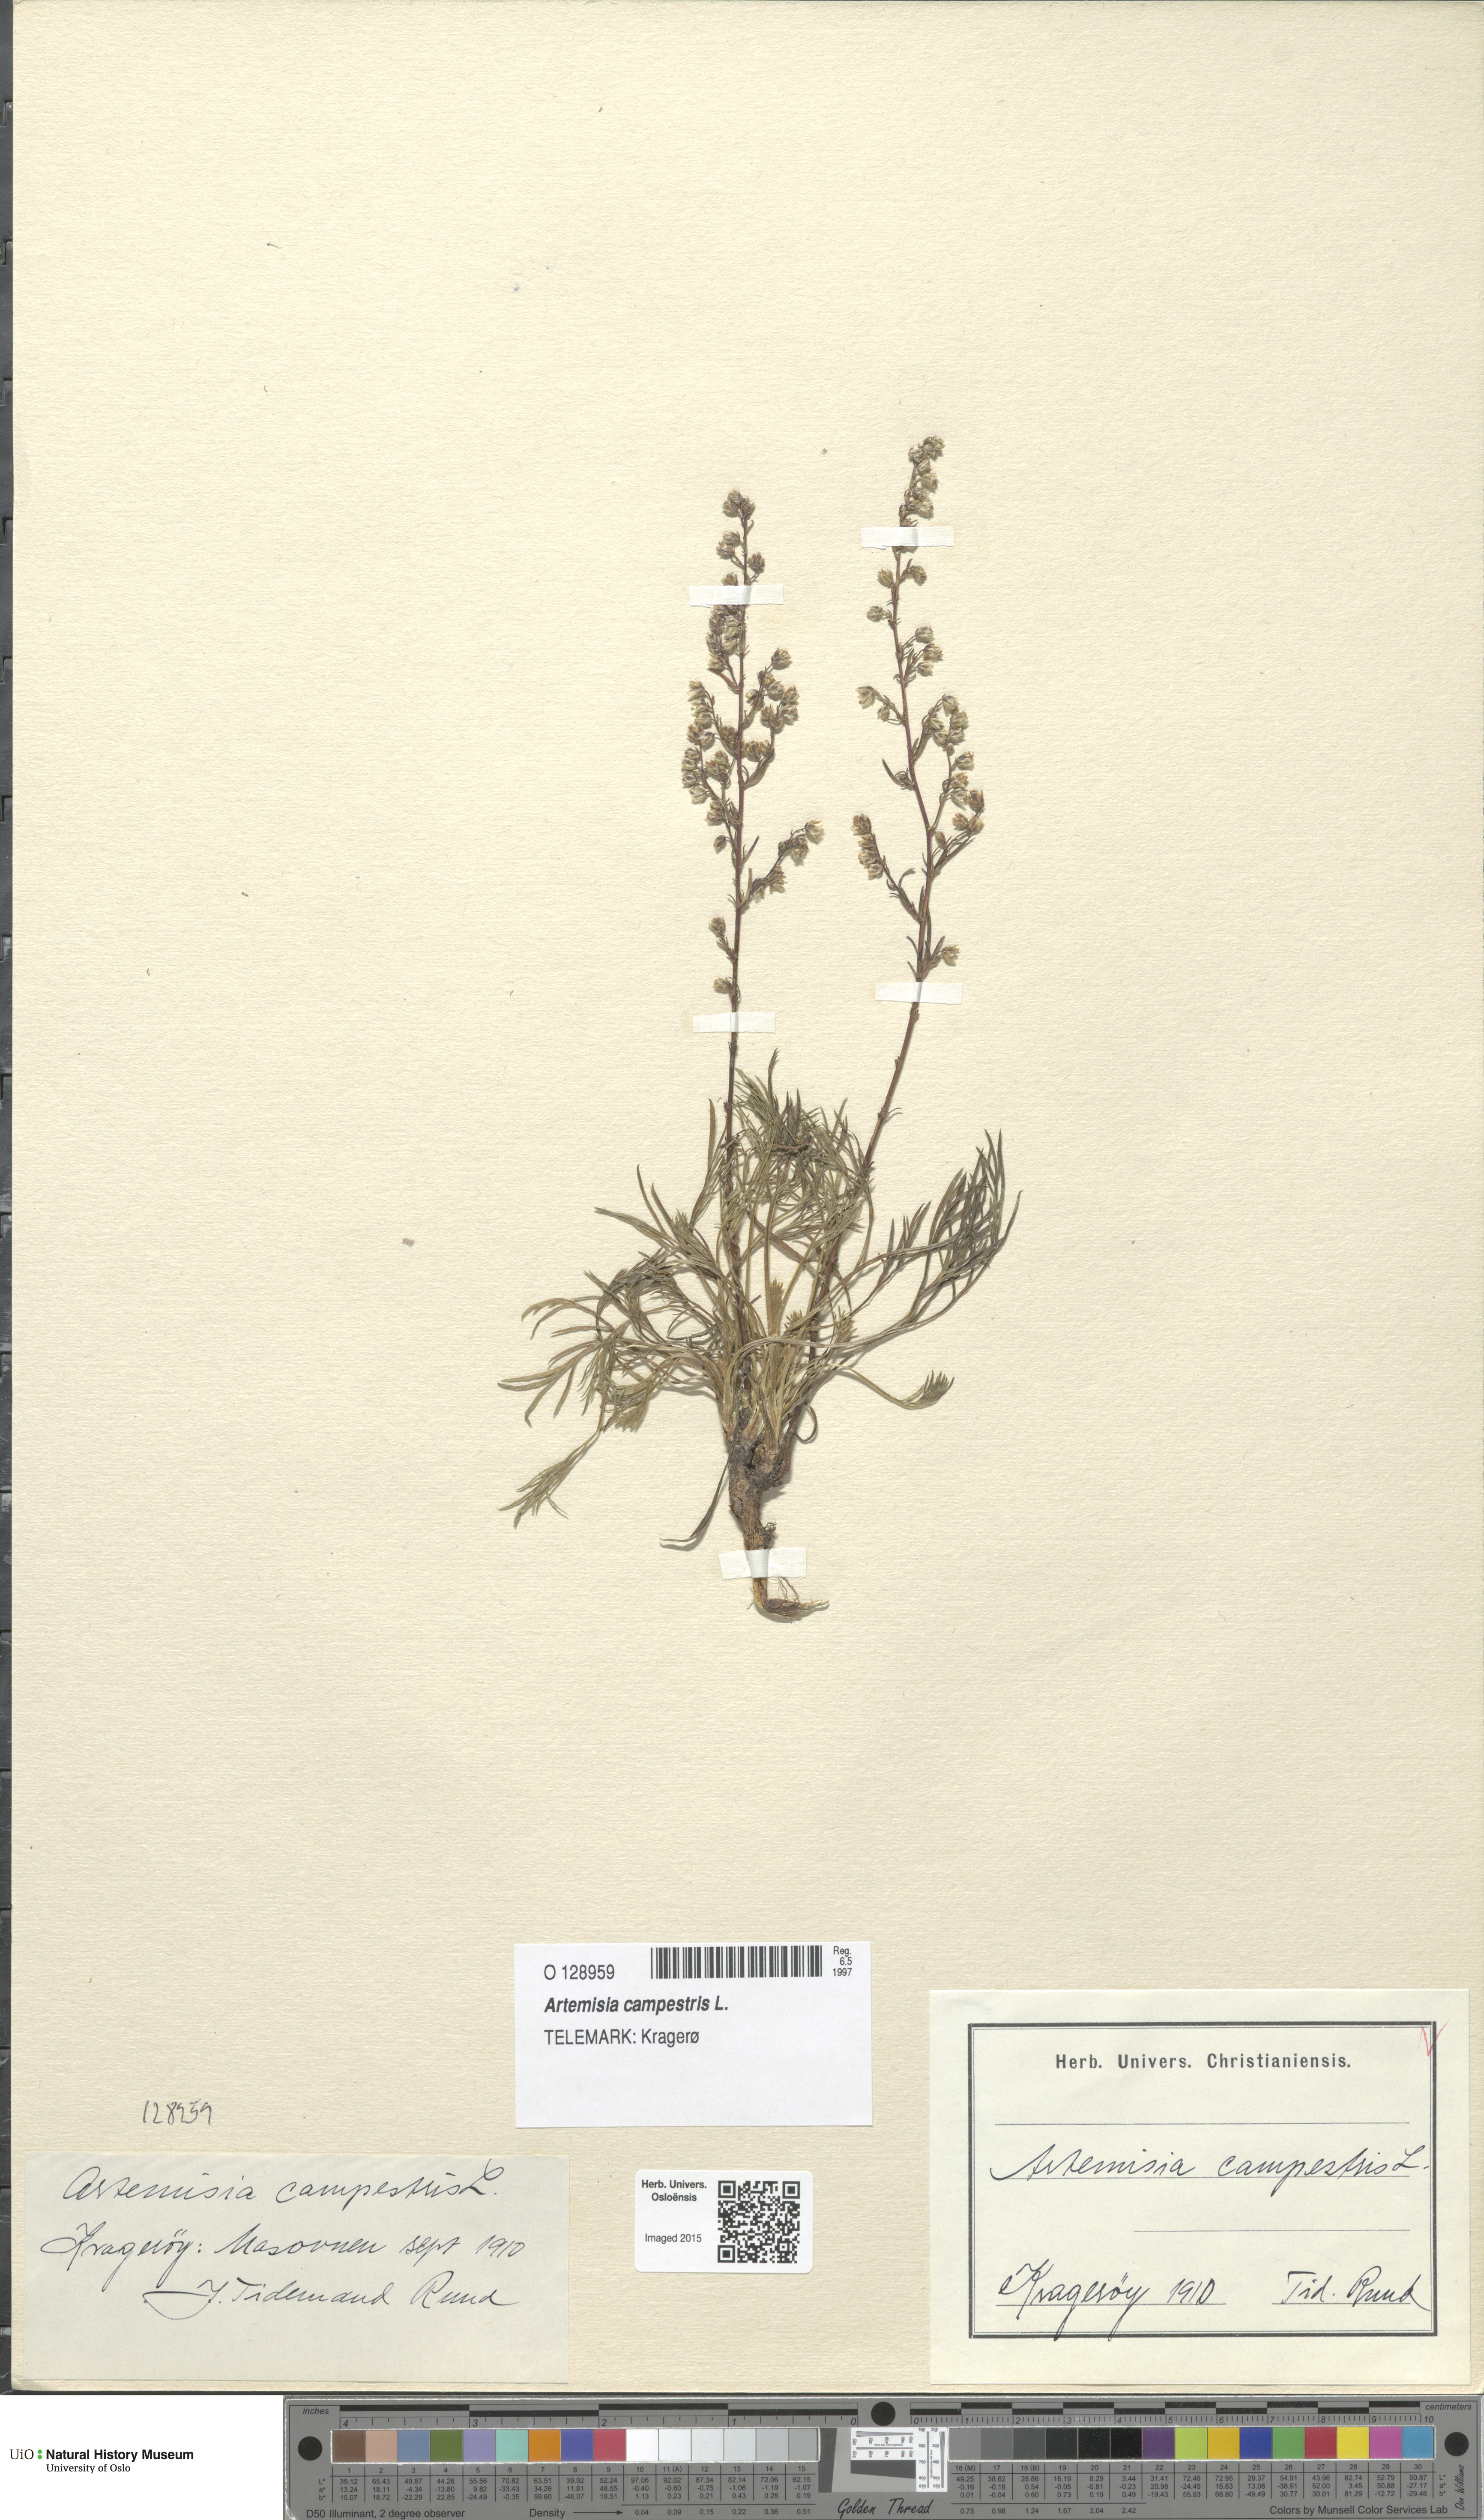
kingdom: Plantae
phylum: Tracheophyta
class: Magnoliopsida
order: Asterales
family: Asteraceae
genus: Artemisia
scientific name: Artemisia campestris
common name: Field wormwood
